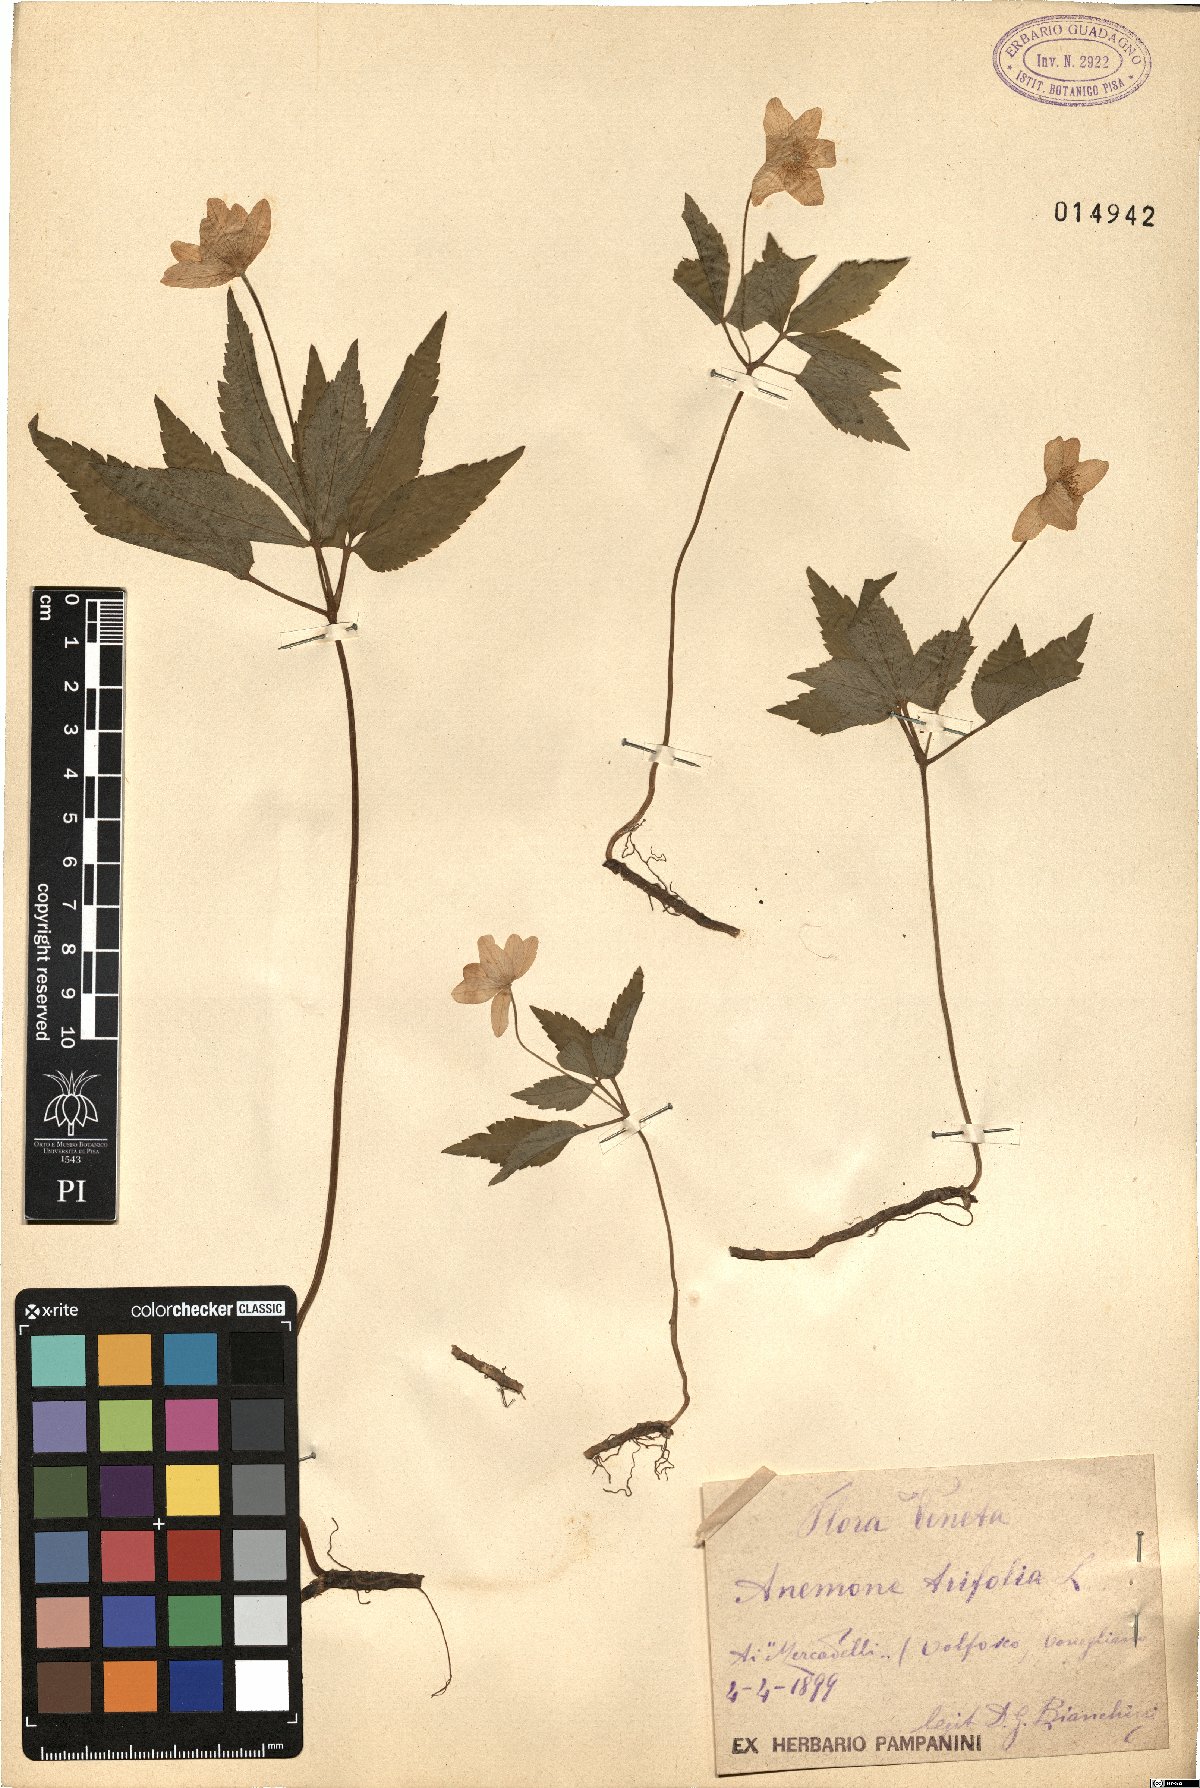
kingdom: Plantae
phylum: Tracheophyta
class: Magnoliopsida
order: Ranunculales
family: Ranunculaceae
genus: Anemone
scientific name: Anemone trifolia
